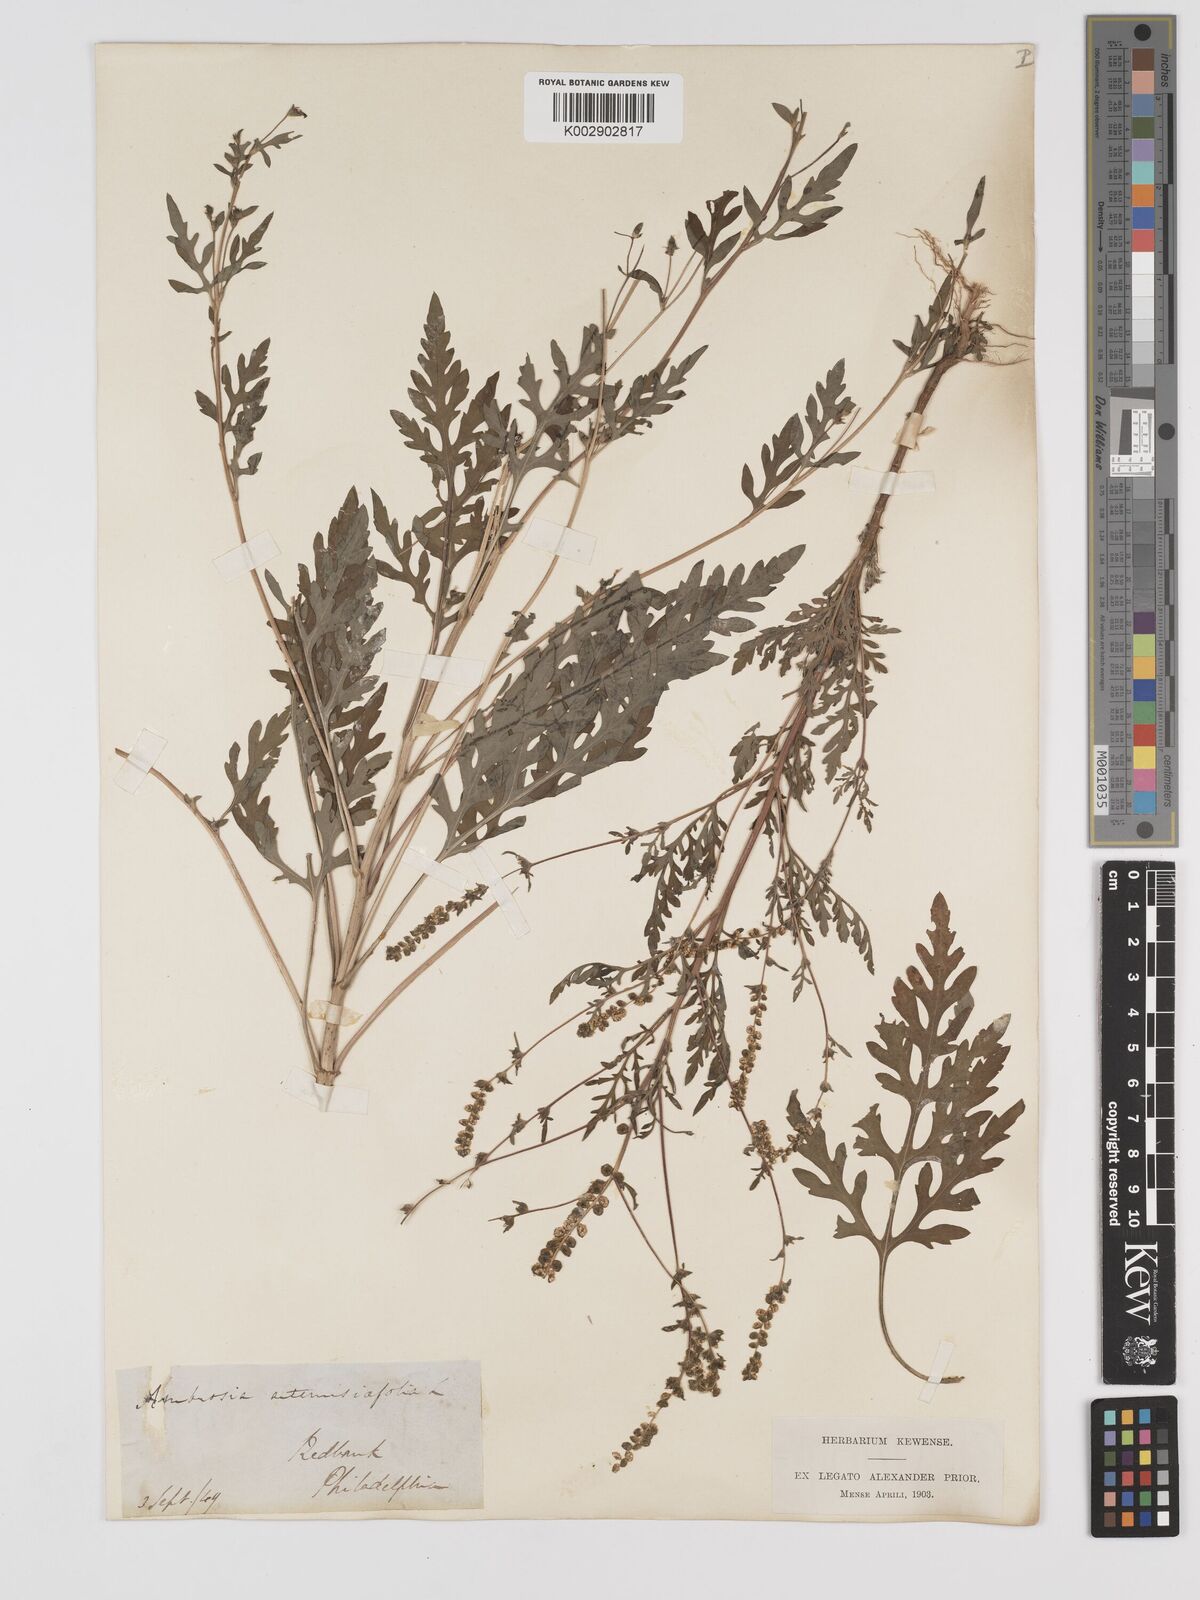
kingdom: Plantae
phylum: Tracheophyta
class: Magnoliopsida
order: Asterales
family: Asteraceae
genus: Ambrosia
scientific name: Ambrosia artemisiifolia
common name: Annual ragweed
